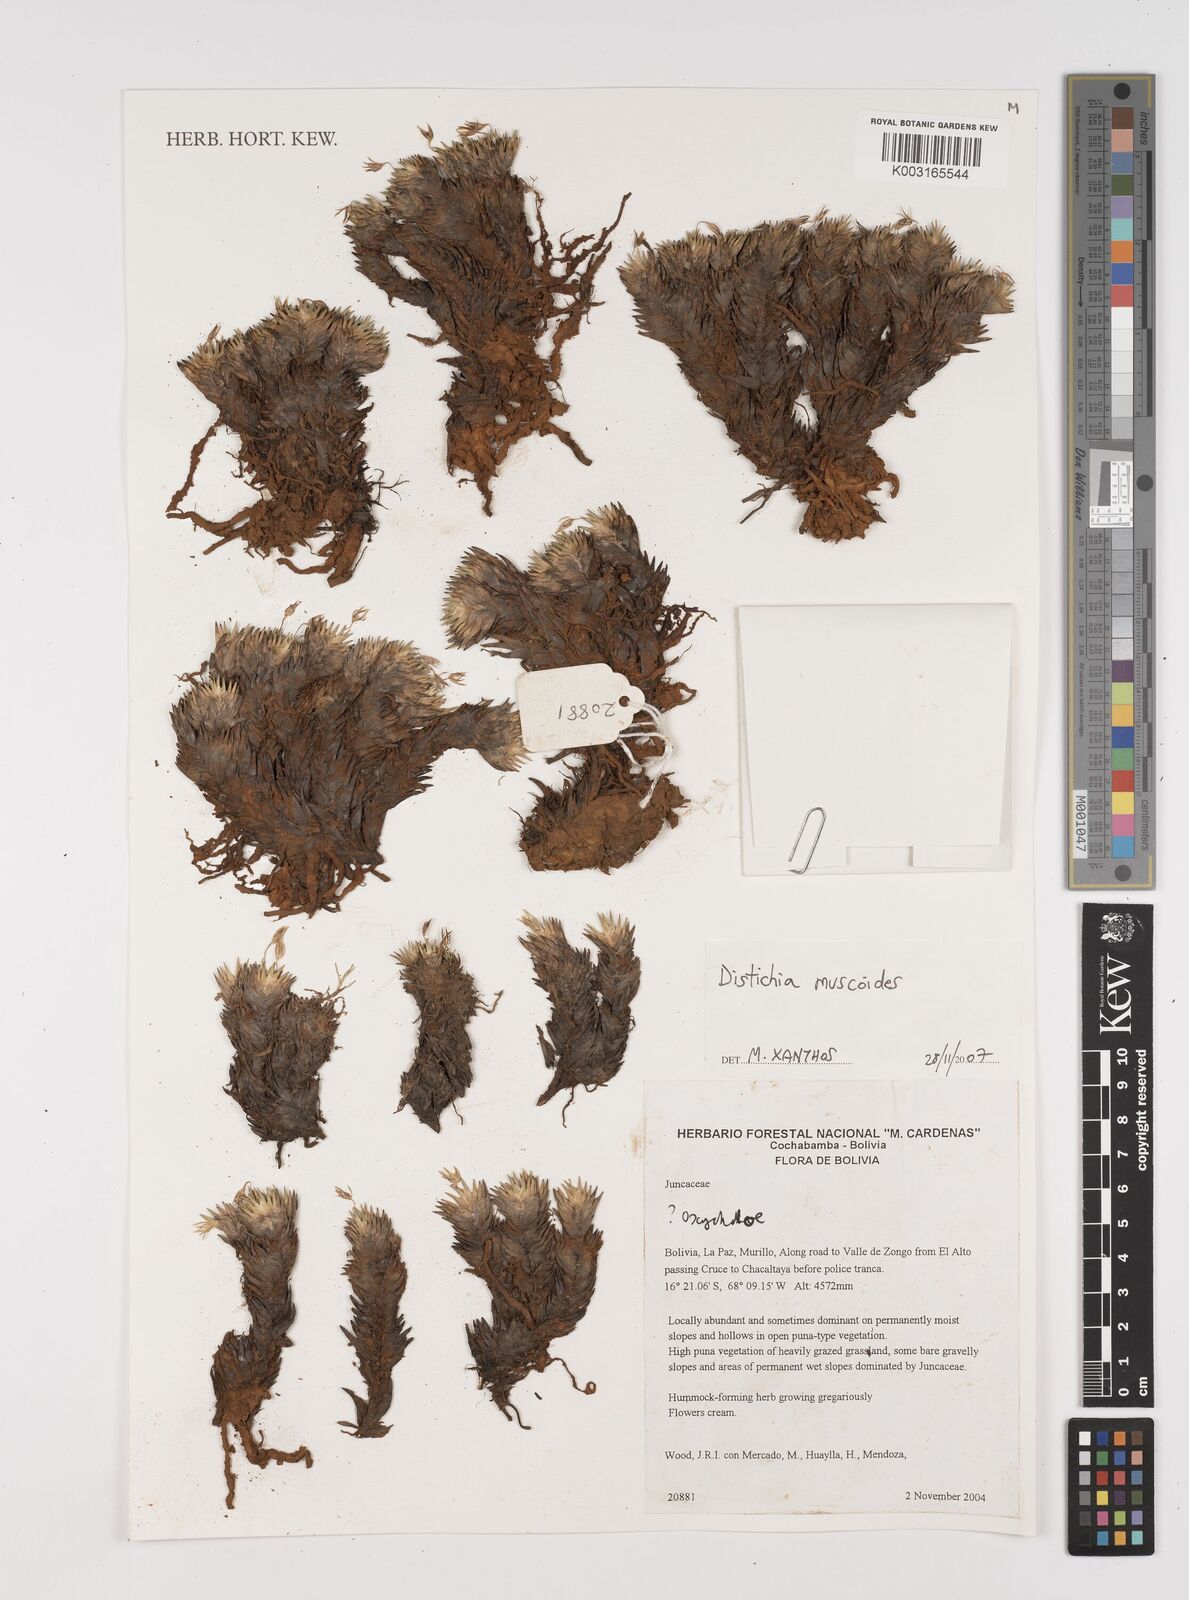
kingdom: Plantae
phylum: Tracheophyta
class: Liliopsida
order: Poales
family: Juncaceae
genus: Distichia
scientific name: Distichia muscoides
